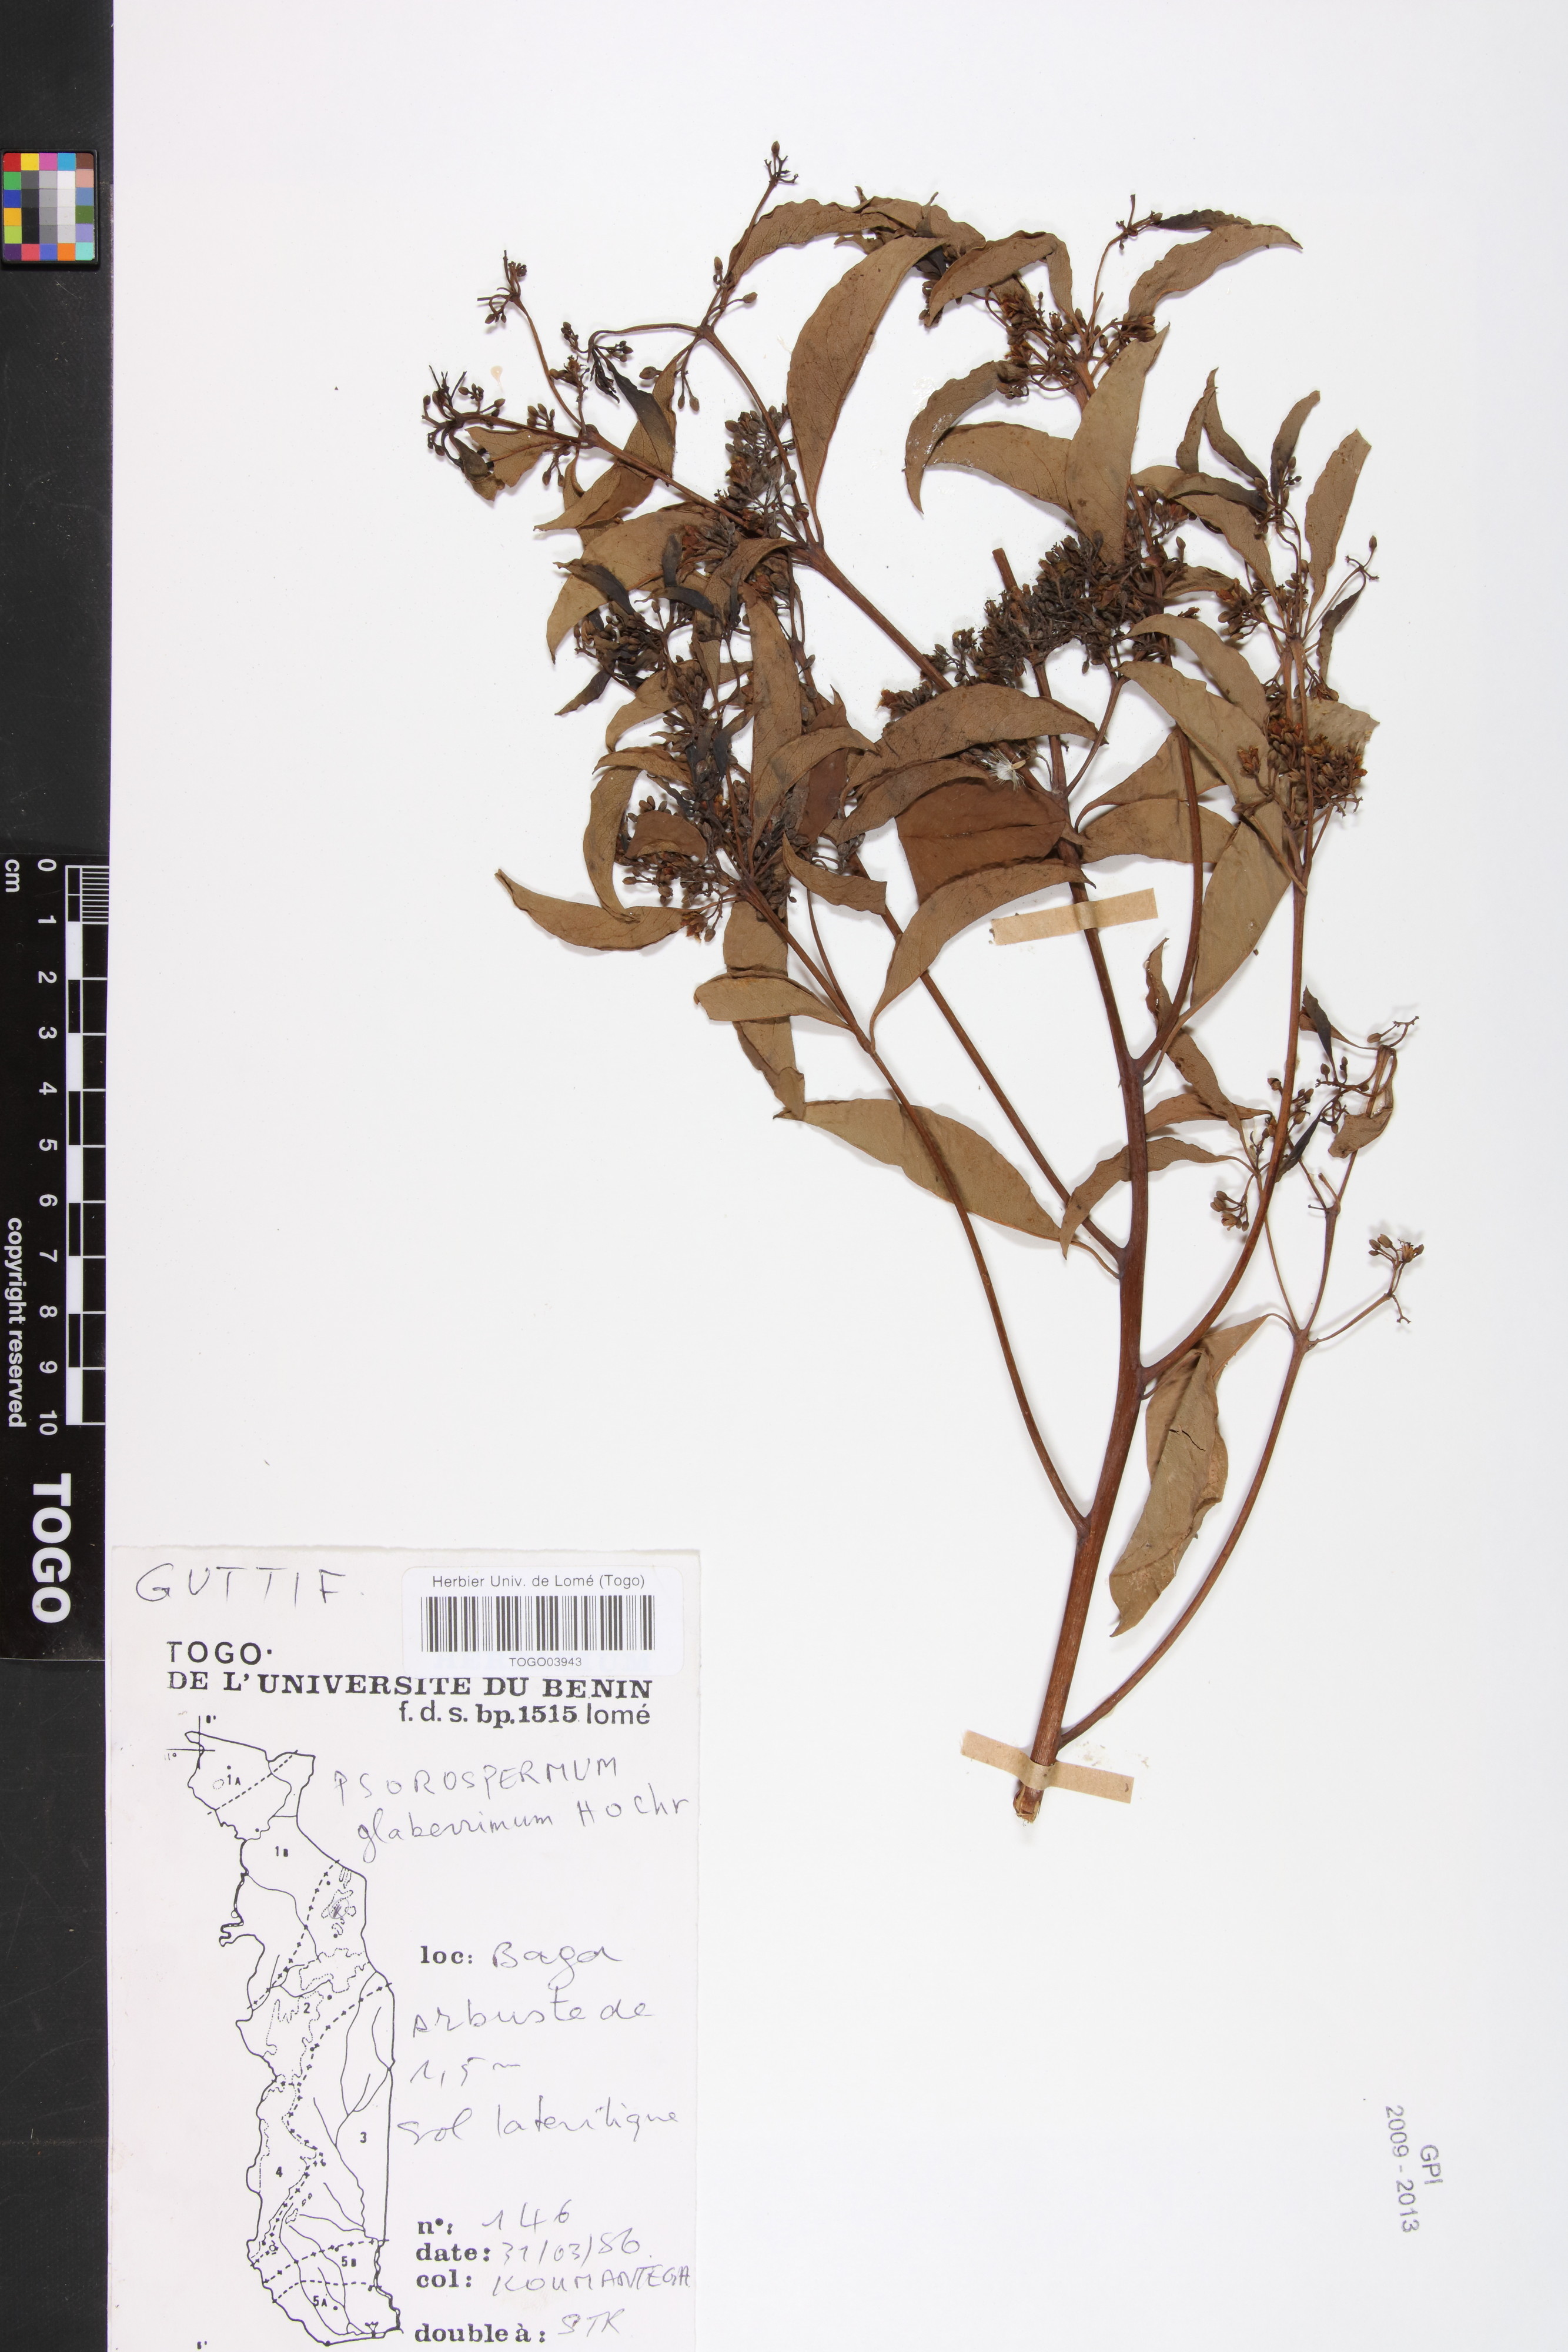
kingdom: Plantae
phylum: Tracheophyta
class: Magnoliopsida
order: Malpighiales
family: Hypericaceae
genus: Psorospermum
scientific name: Psorospermum glaberrimum
